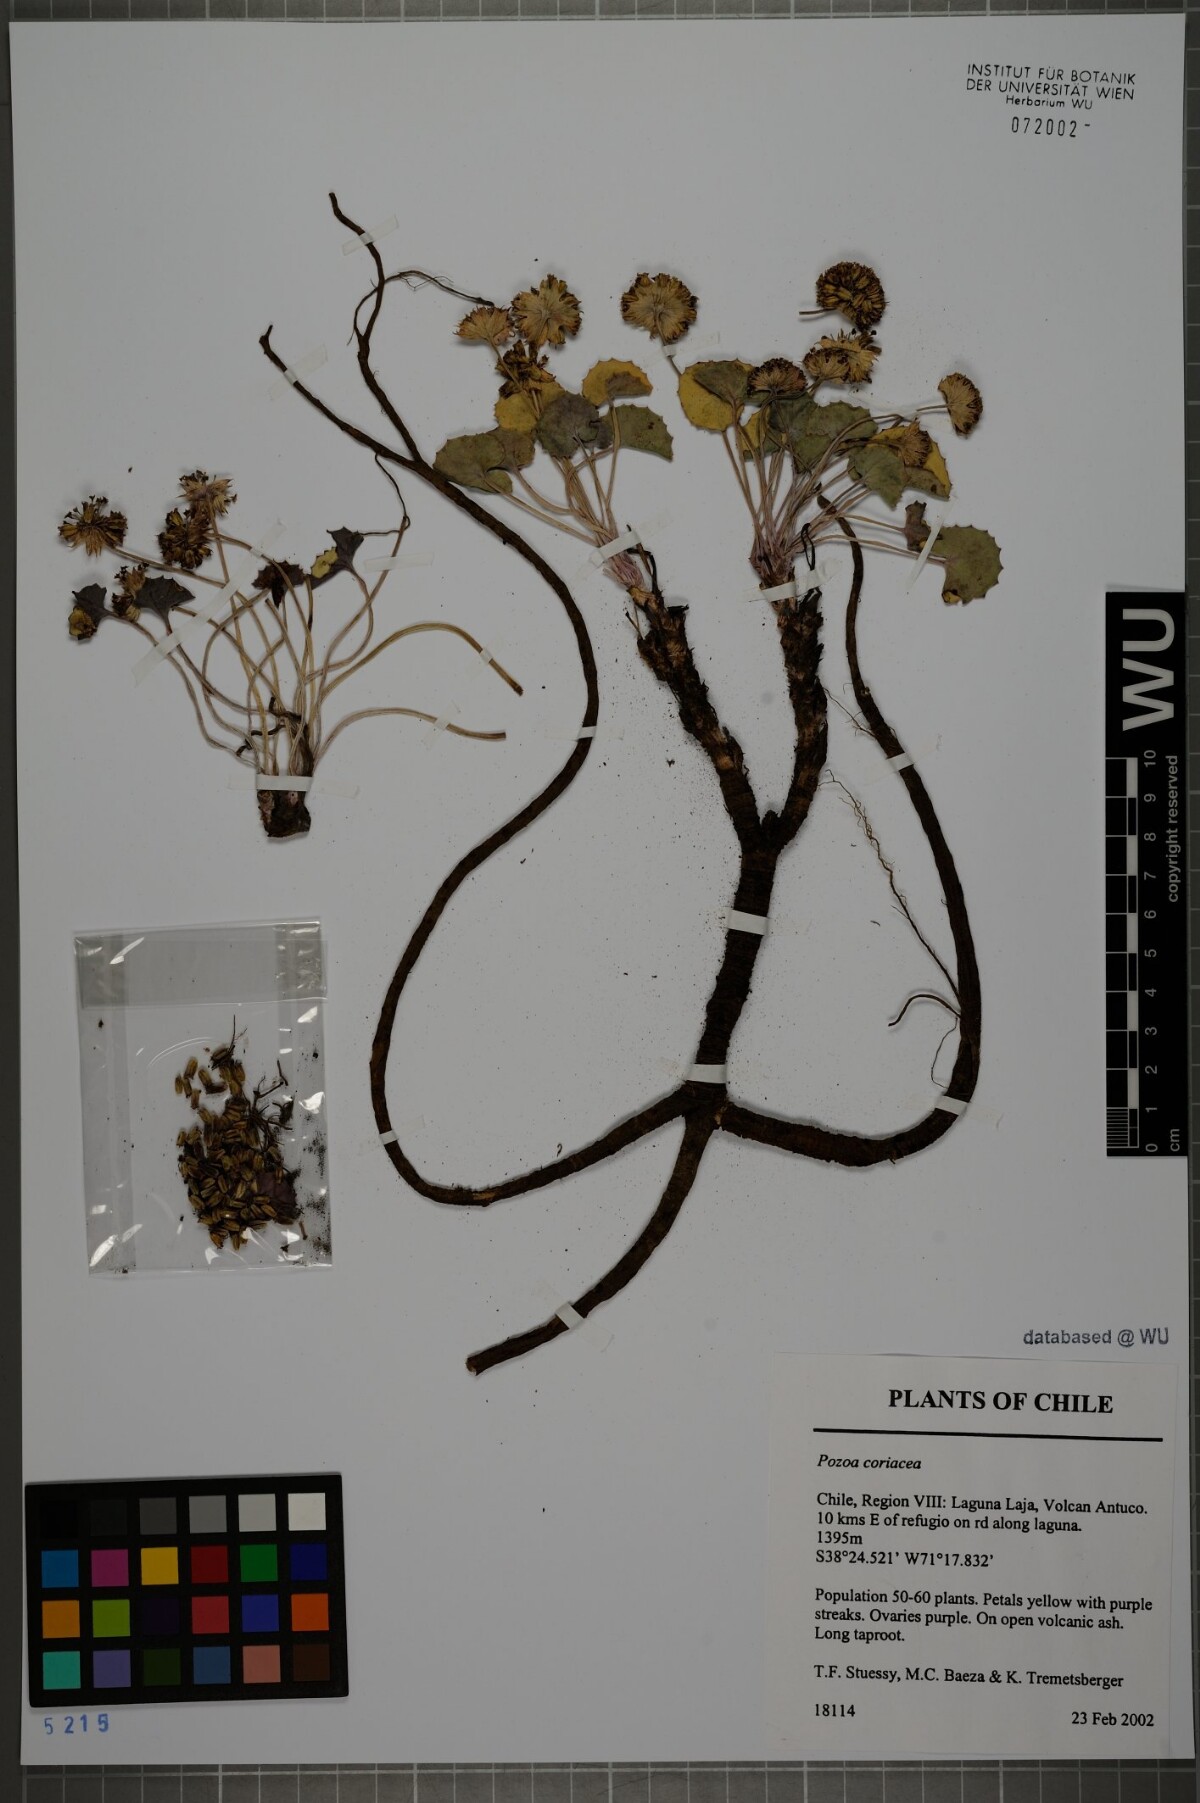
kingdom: Plantae
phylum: Tracheophyta
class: Magnoliopsida
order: Apiales
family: Apiaceae
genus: Pozoa
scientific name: Pozoa coriacea
